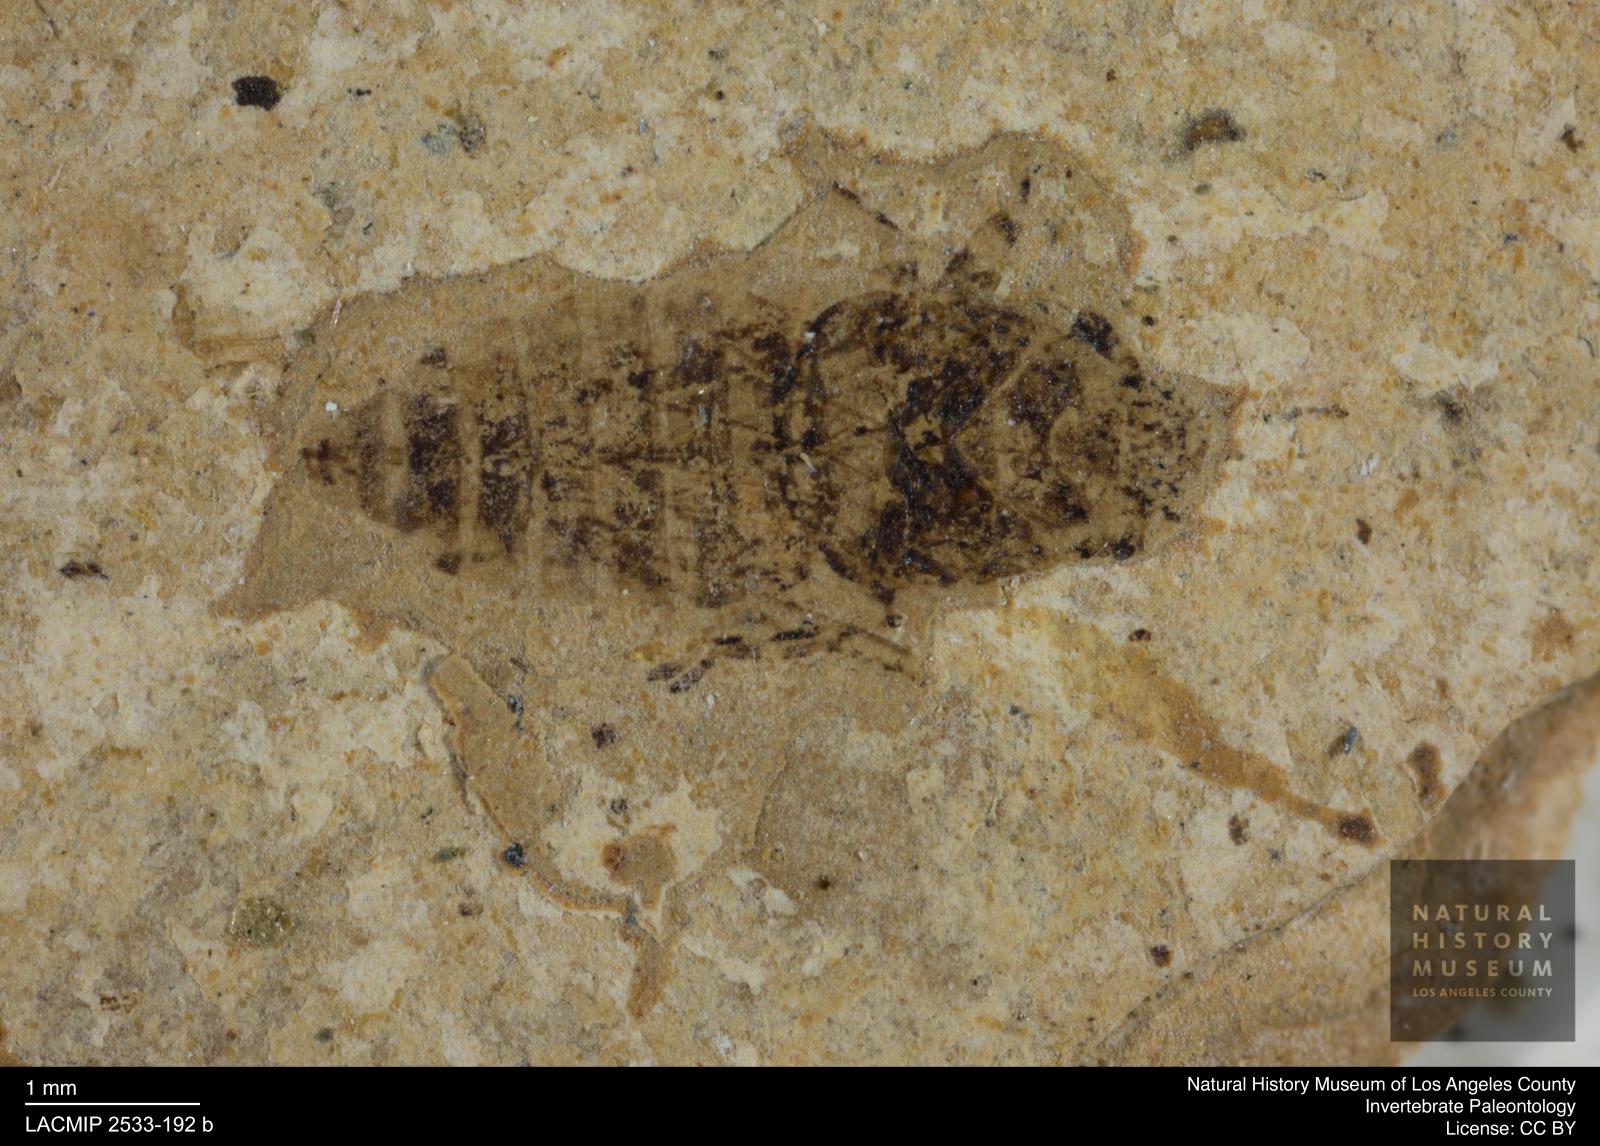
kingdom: Animalia
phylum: Arthropoda
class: Insecta
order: Hemiptera
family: Cicadellidae
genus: Thamnotettix
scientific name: Thamnotettix clypealis
